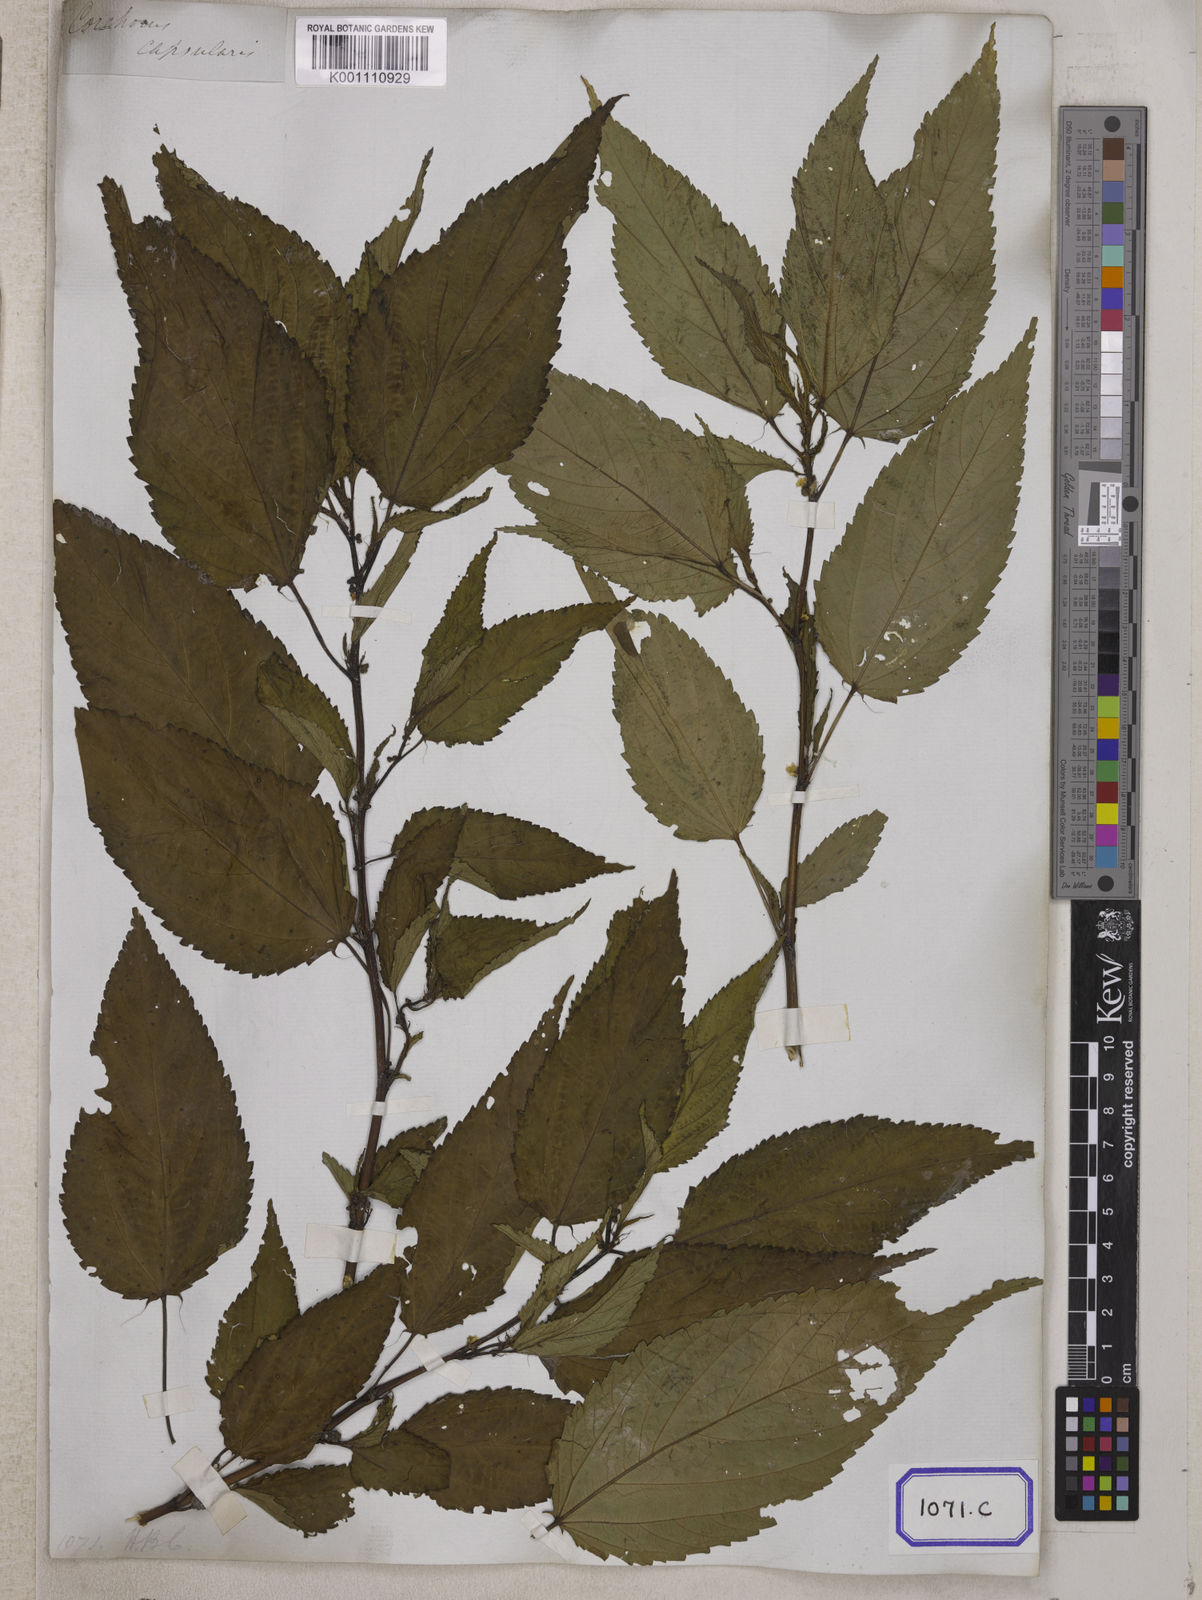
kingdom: Plantae
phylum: Tracheophyta
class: Magnoliopsida
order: Malvales
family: Malvaceae
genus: Corchorus
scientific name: Corchorus capsularis
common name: Jute
